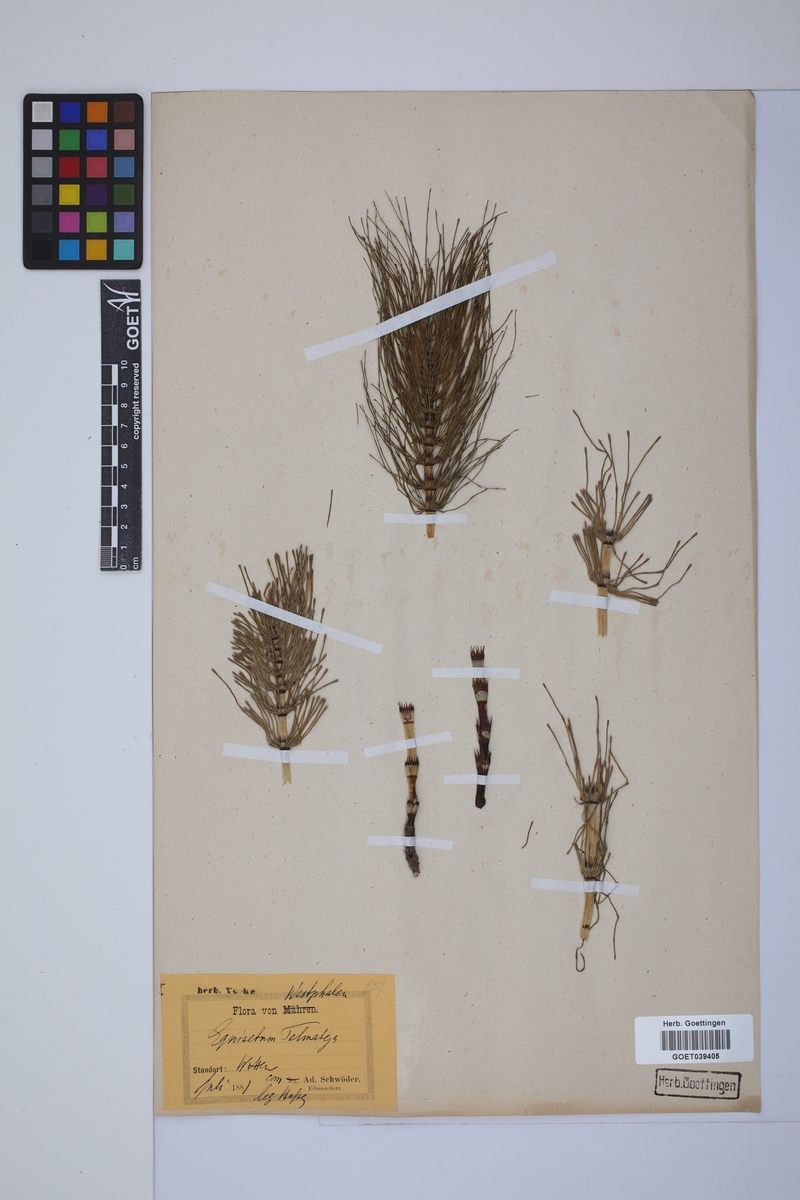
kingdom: Plantae
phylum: Tracheophyta
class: Polypodiopsida
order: Equisetales
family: Equisetaceae
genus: Equisetum
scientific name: Equisetum telmateia
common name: Great horsetail
